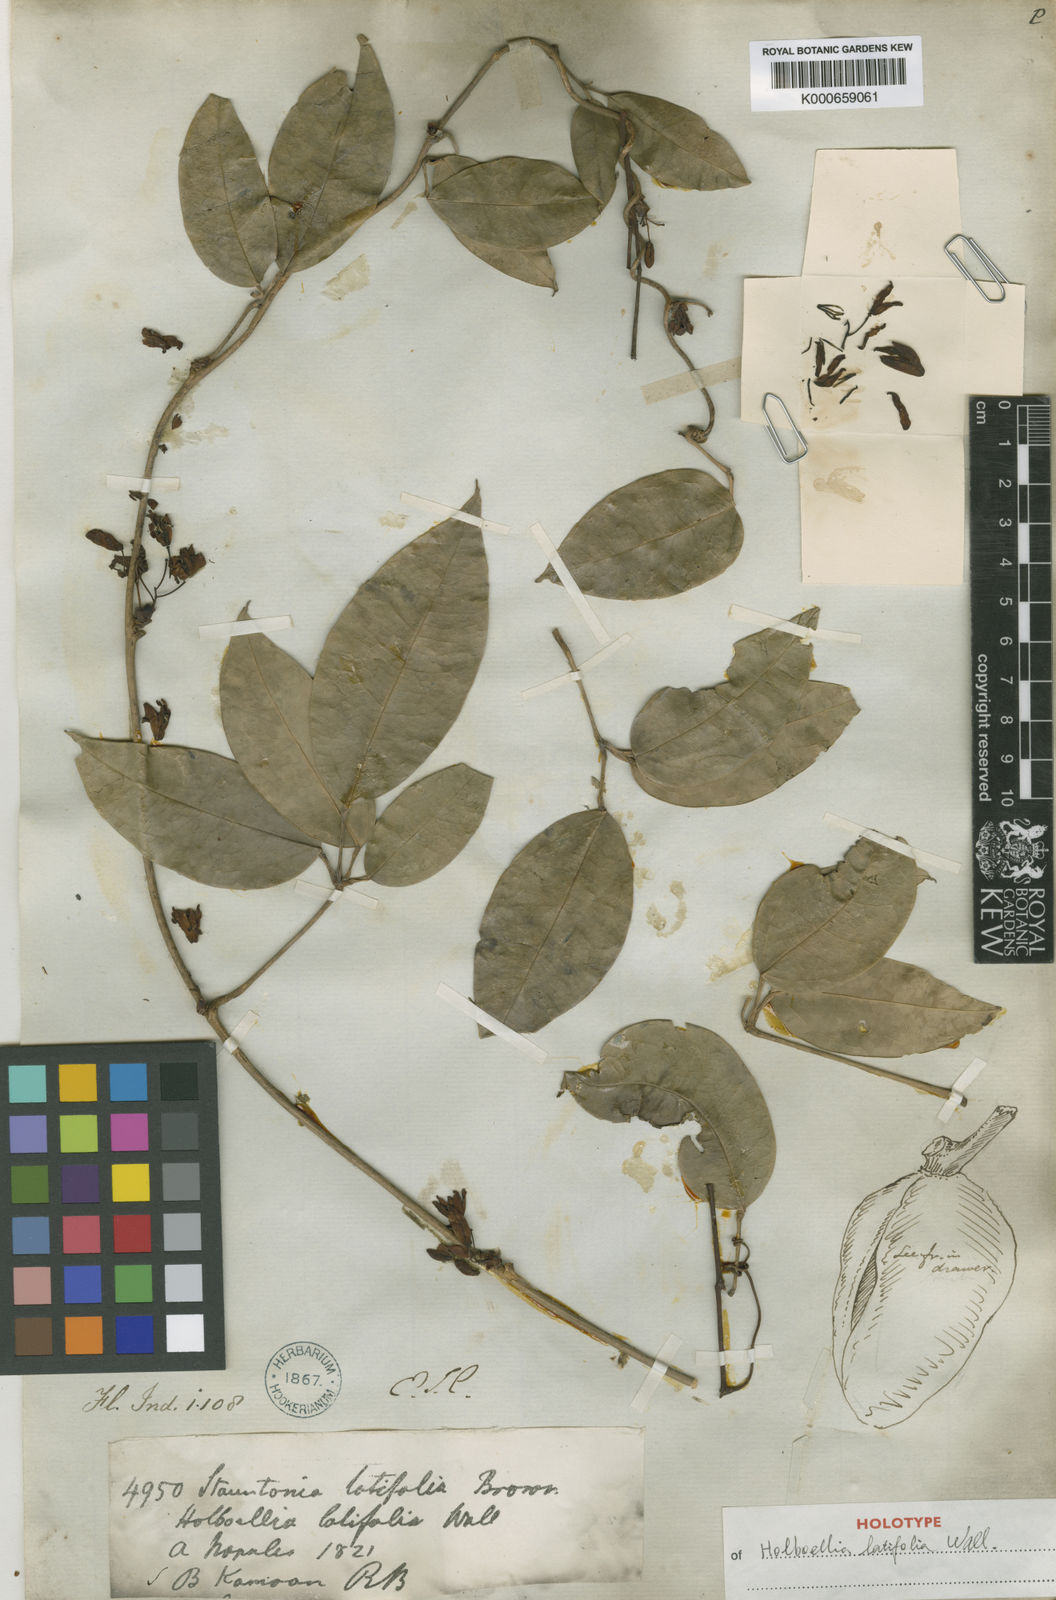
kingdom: Plantae
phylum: Tracheophyta
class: Magnoliopsida
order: Ranunculales
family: Lardizabalaceae
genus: Stauntonia
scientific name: Stauntonia latifolia
